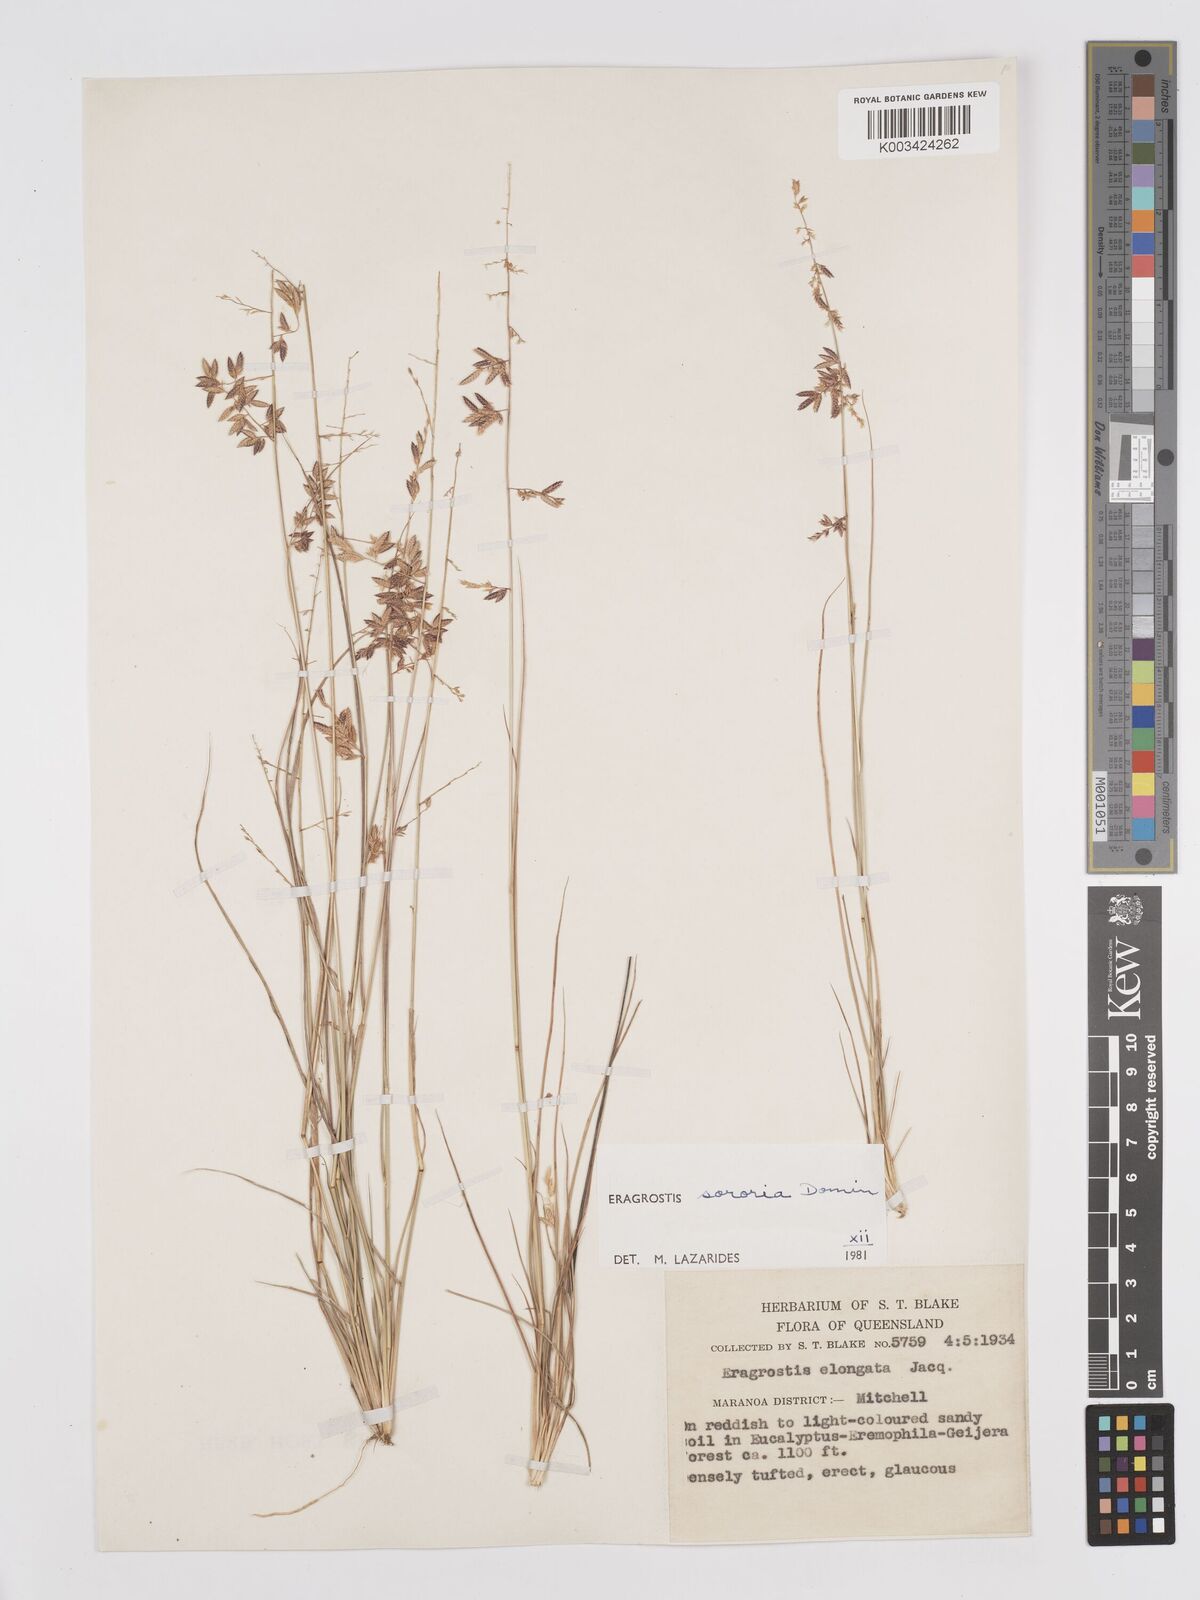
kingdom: Plantae
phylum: Tracheophyta
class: Liliopsida
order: Poales
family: Poaceae
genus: Eragrostis
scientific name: Eragrostis sororia
